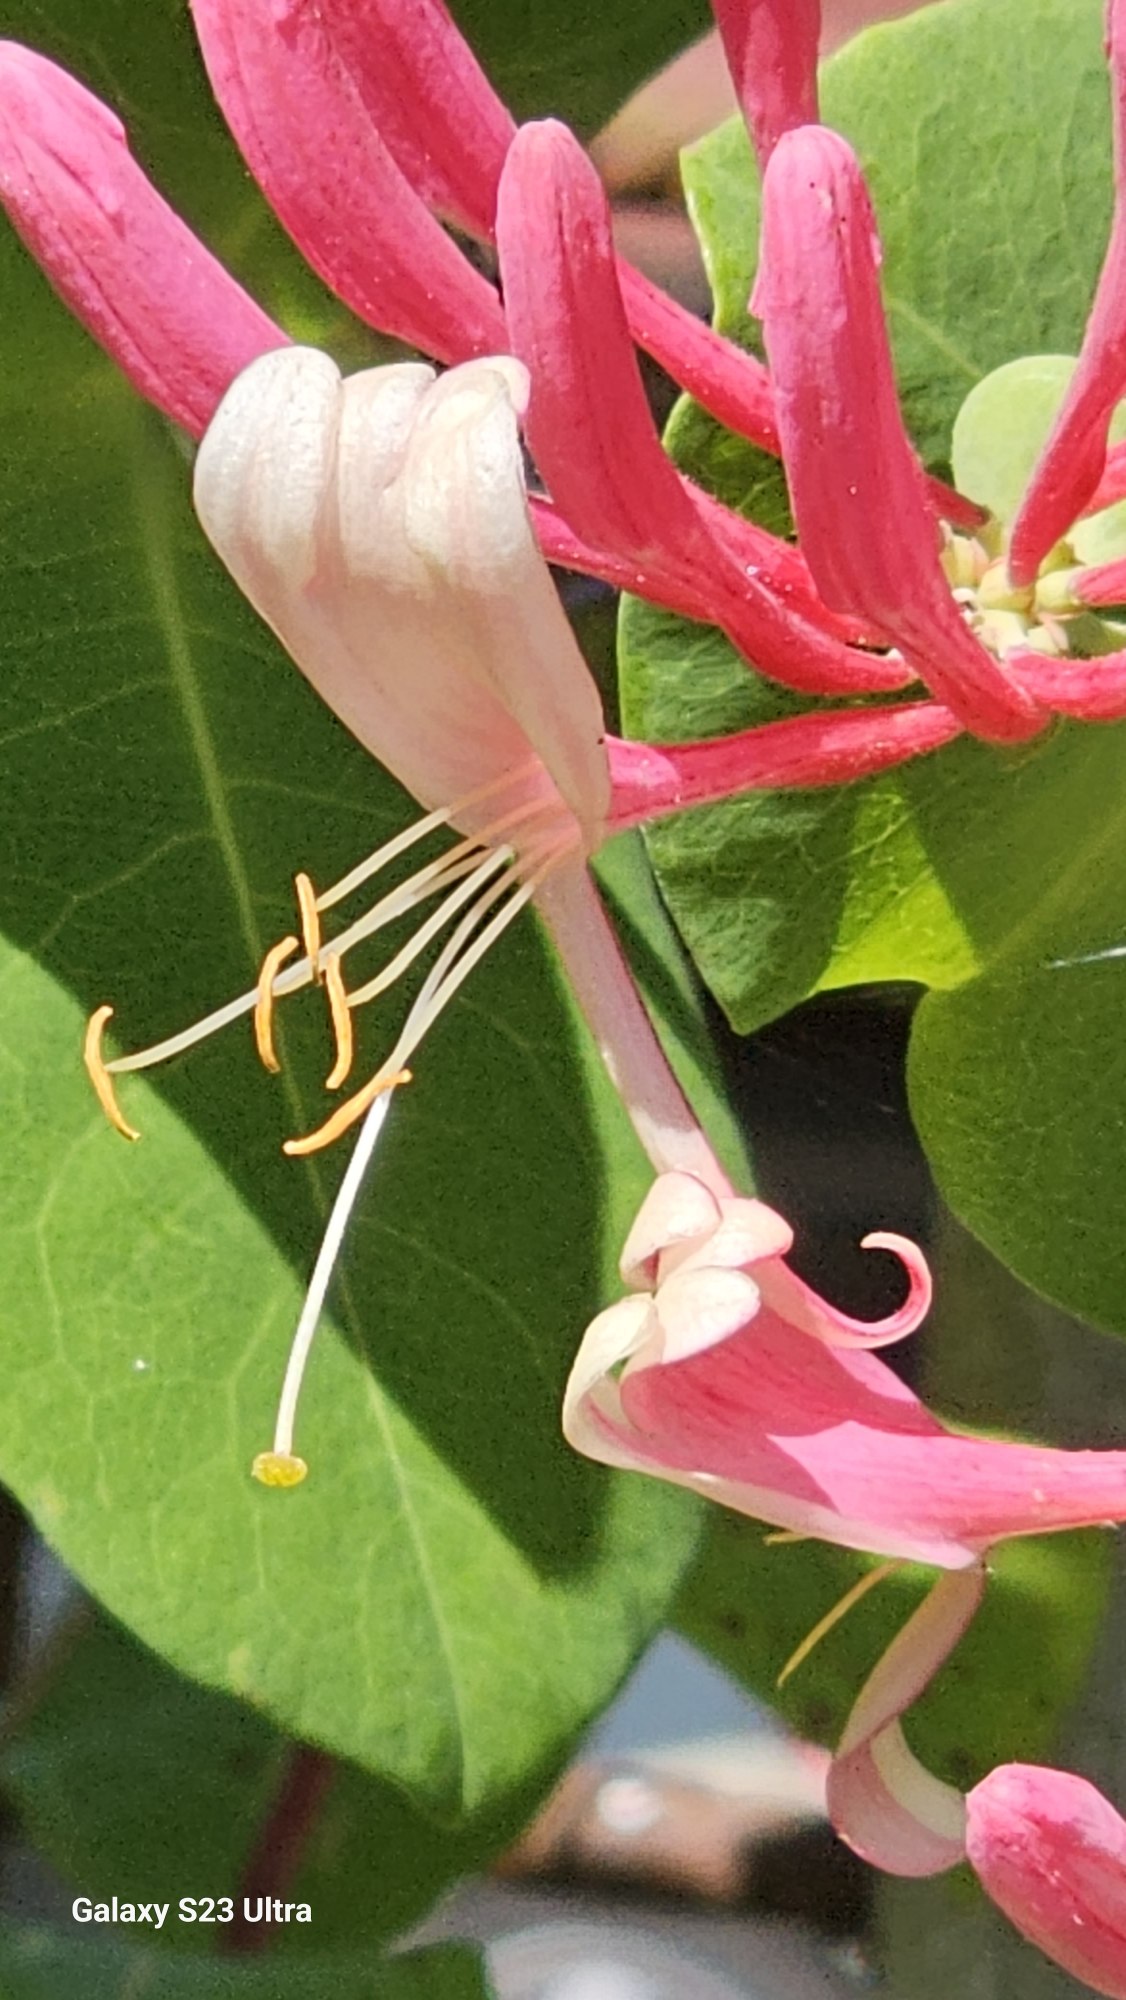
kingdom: Plantae
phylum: Tracheophyta
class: Magnoliopsida
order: Dipsacales
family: Caprifoliaceae
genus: Lonicera
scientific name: Lonicera caprifolium
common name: Ægte kaprifolie
